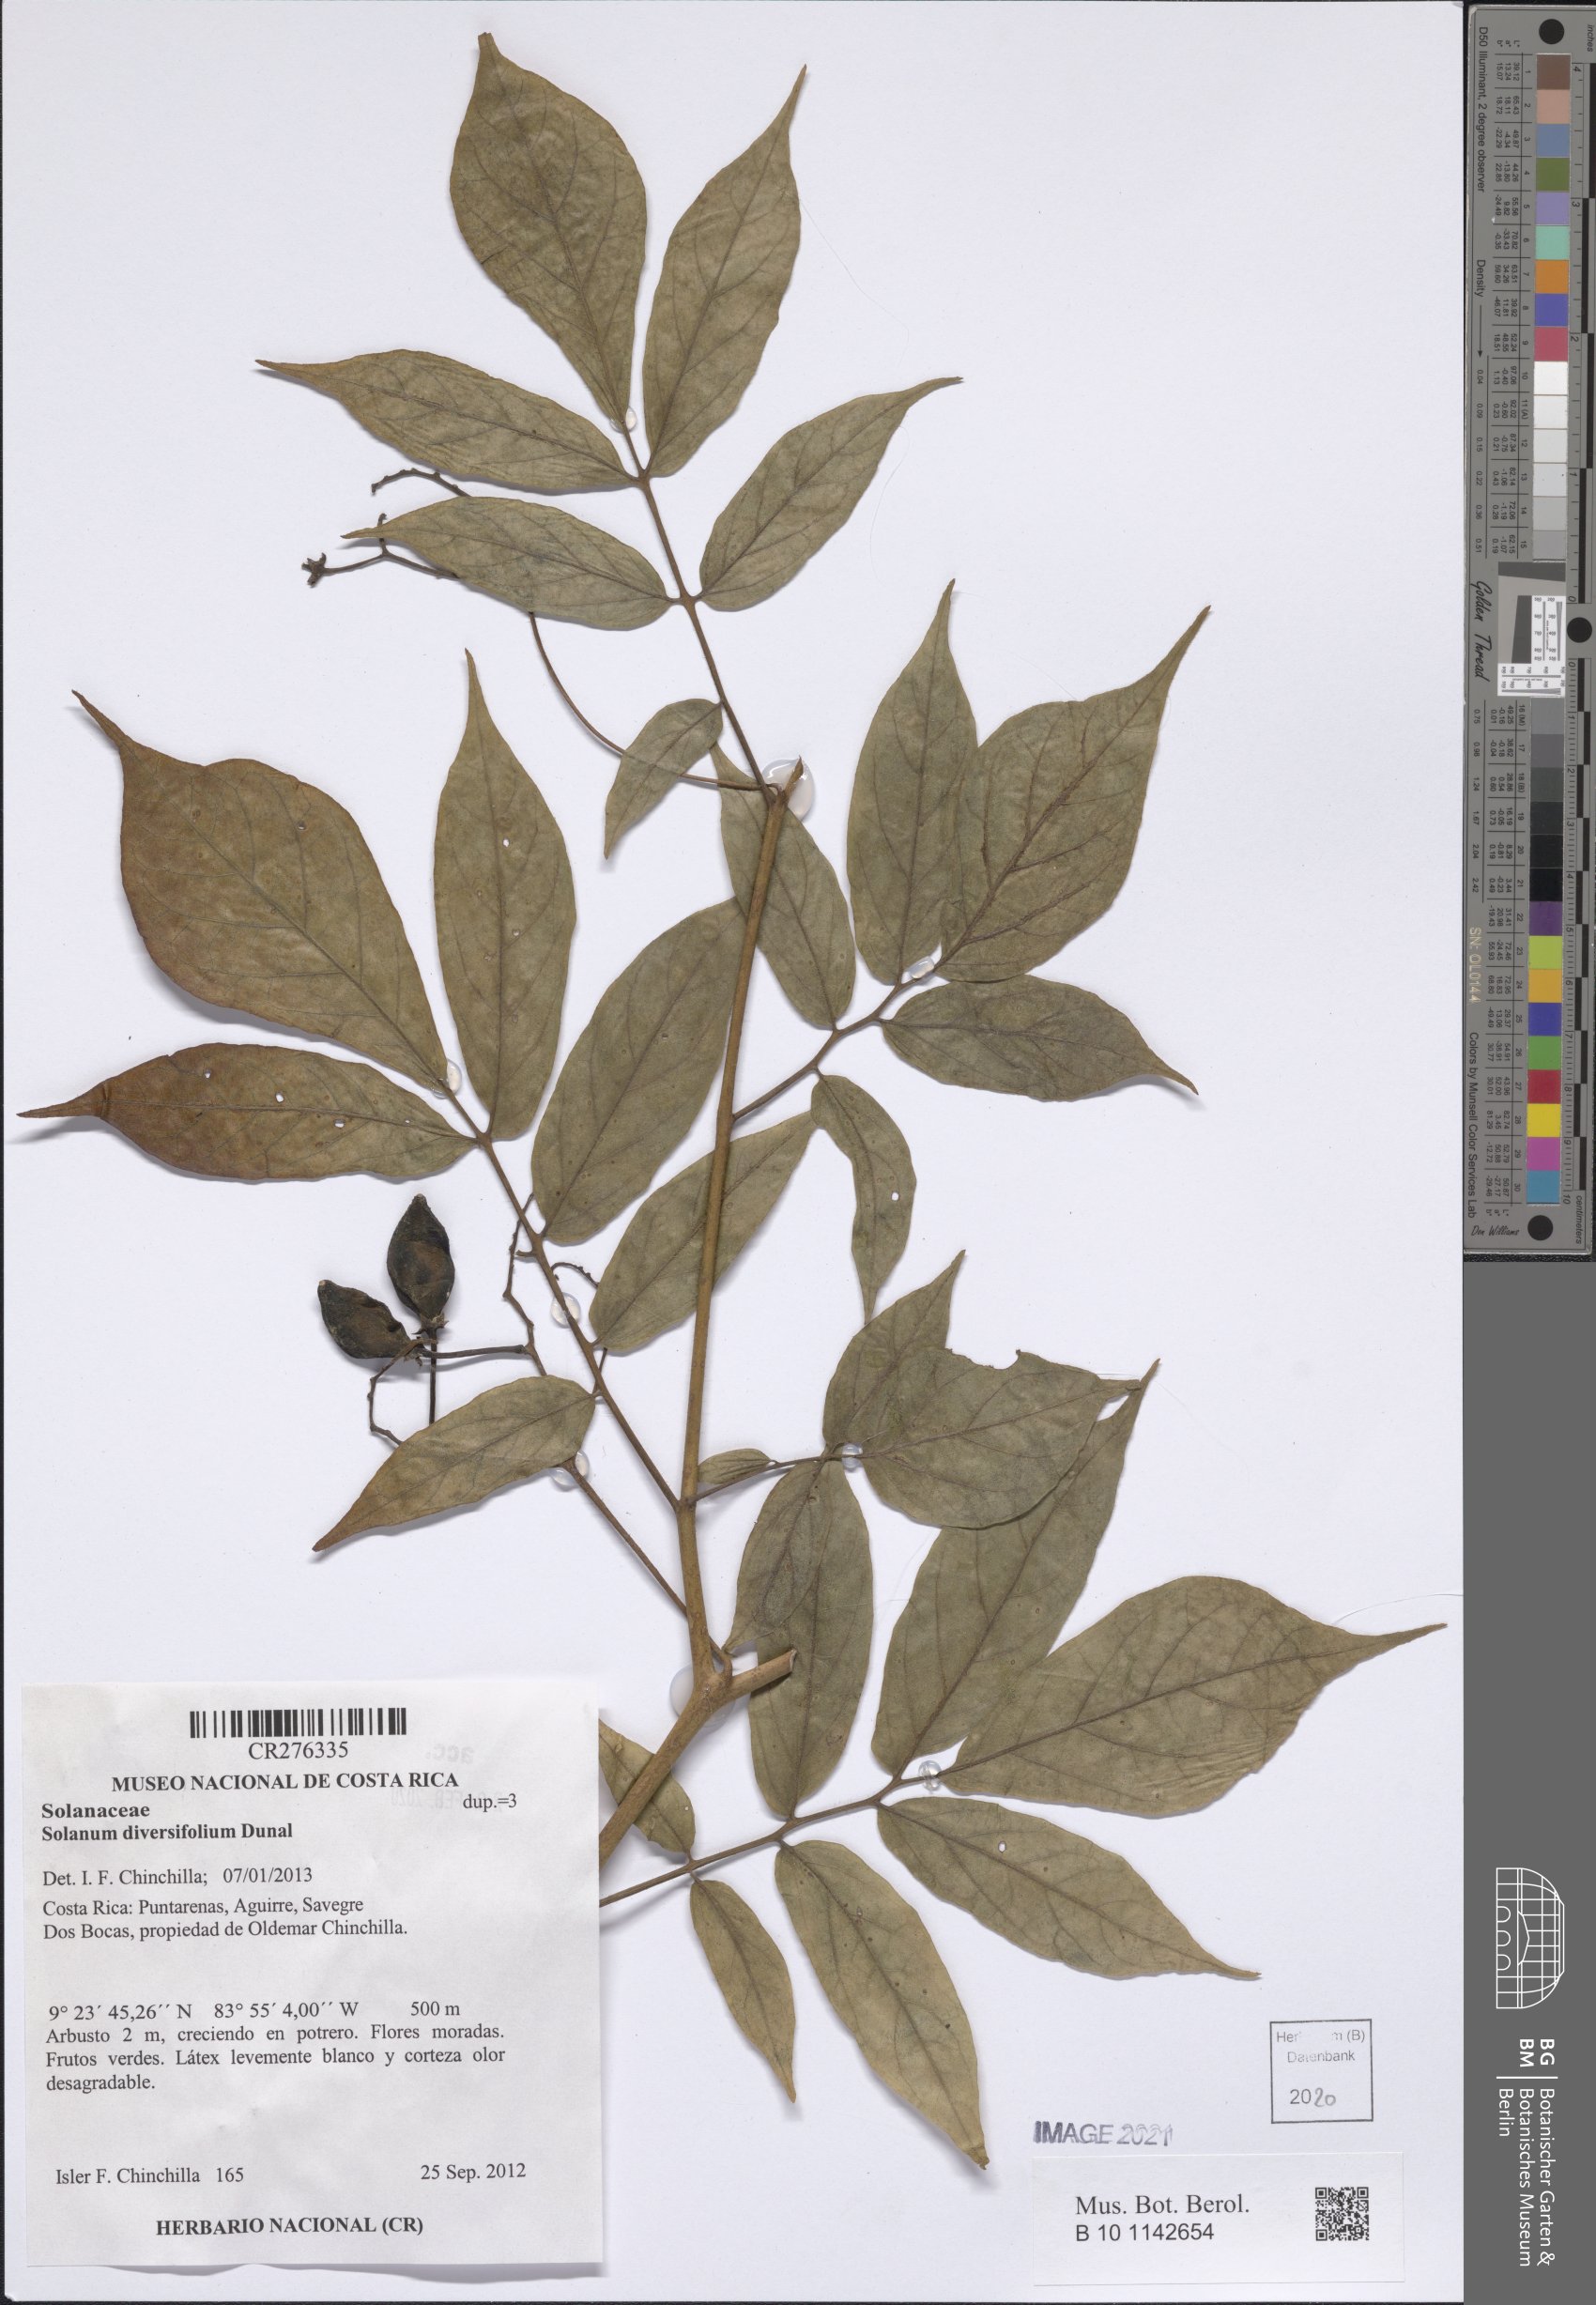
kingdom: Plantae
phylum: Tracheophyta
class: Magnoliopsida
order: Solanales
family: Solanaceae
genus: Solanum
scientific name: Solanum diversifolium
